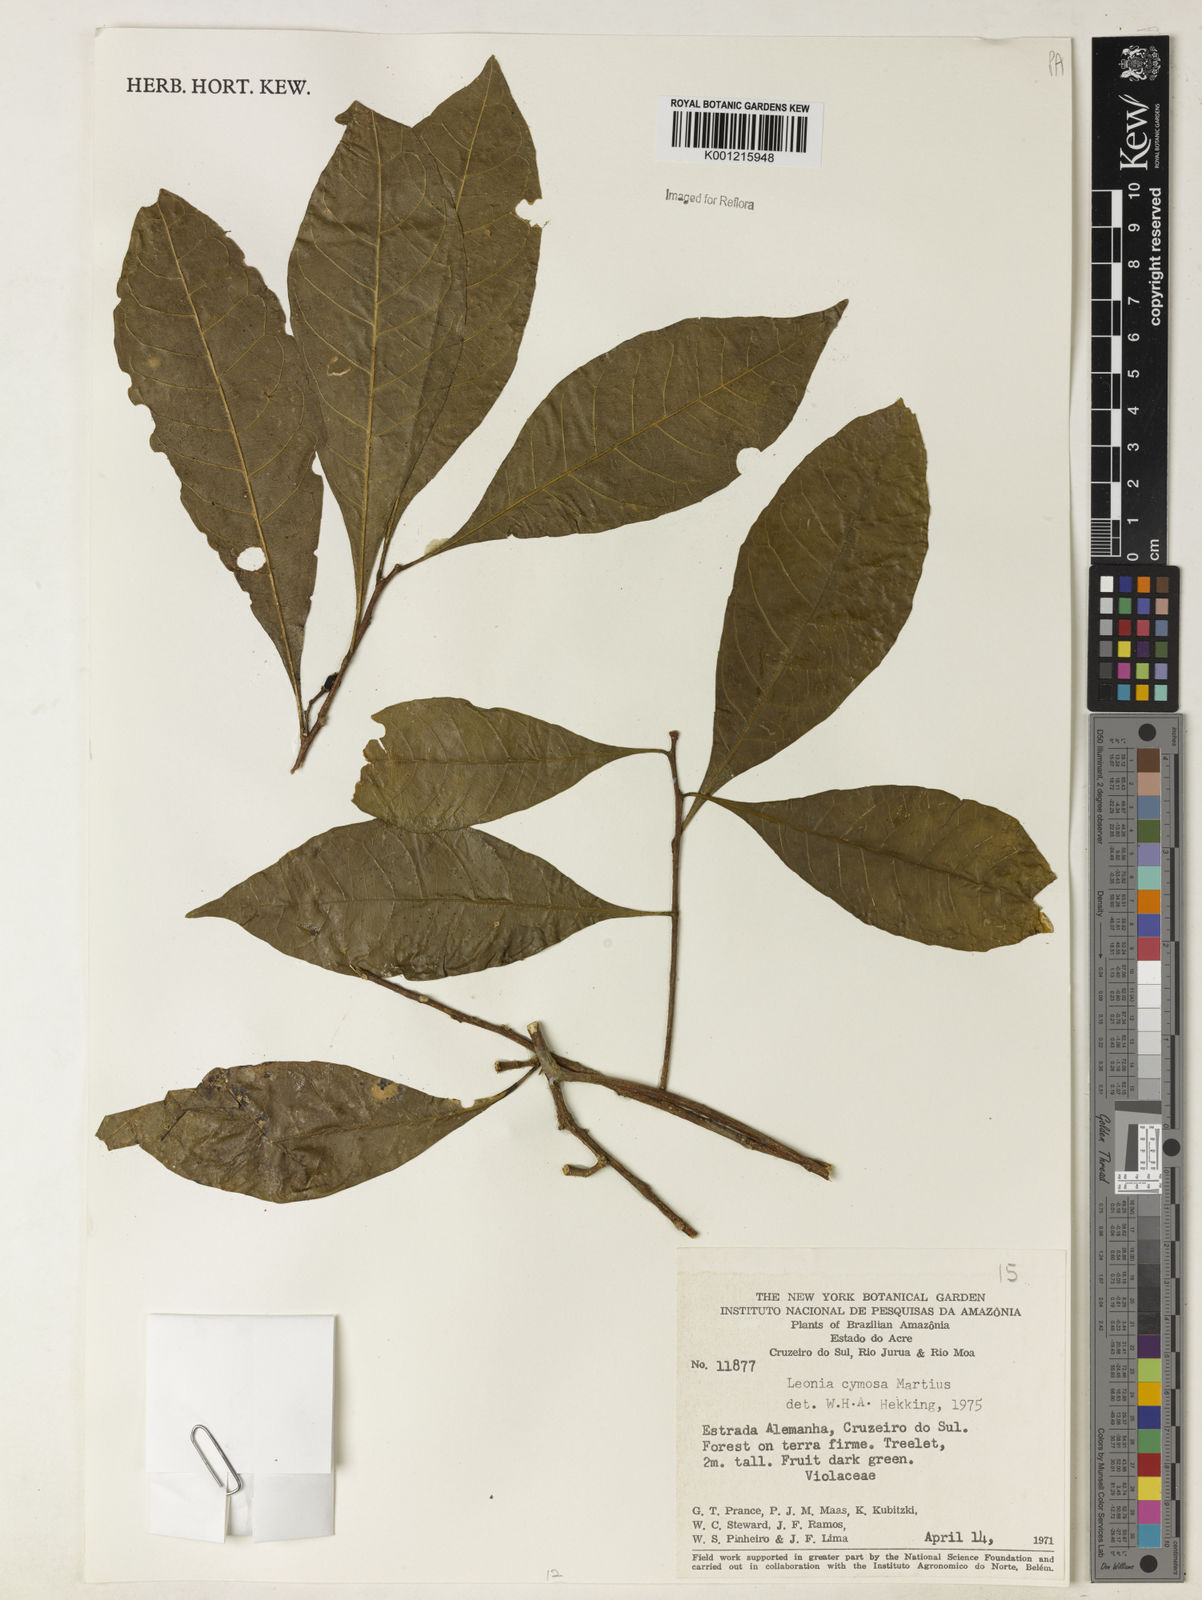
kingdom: Plantae
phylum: Tracheophyta
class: Magnoliopsida
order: Malpighiales
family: Violaceae
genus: Leonia
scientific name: Leonia cymosa
